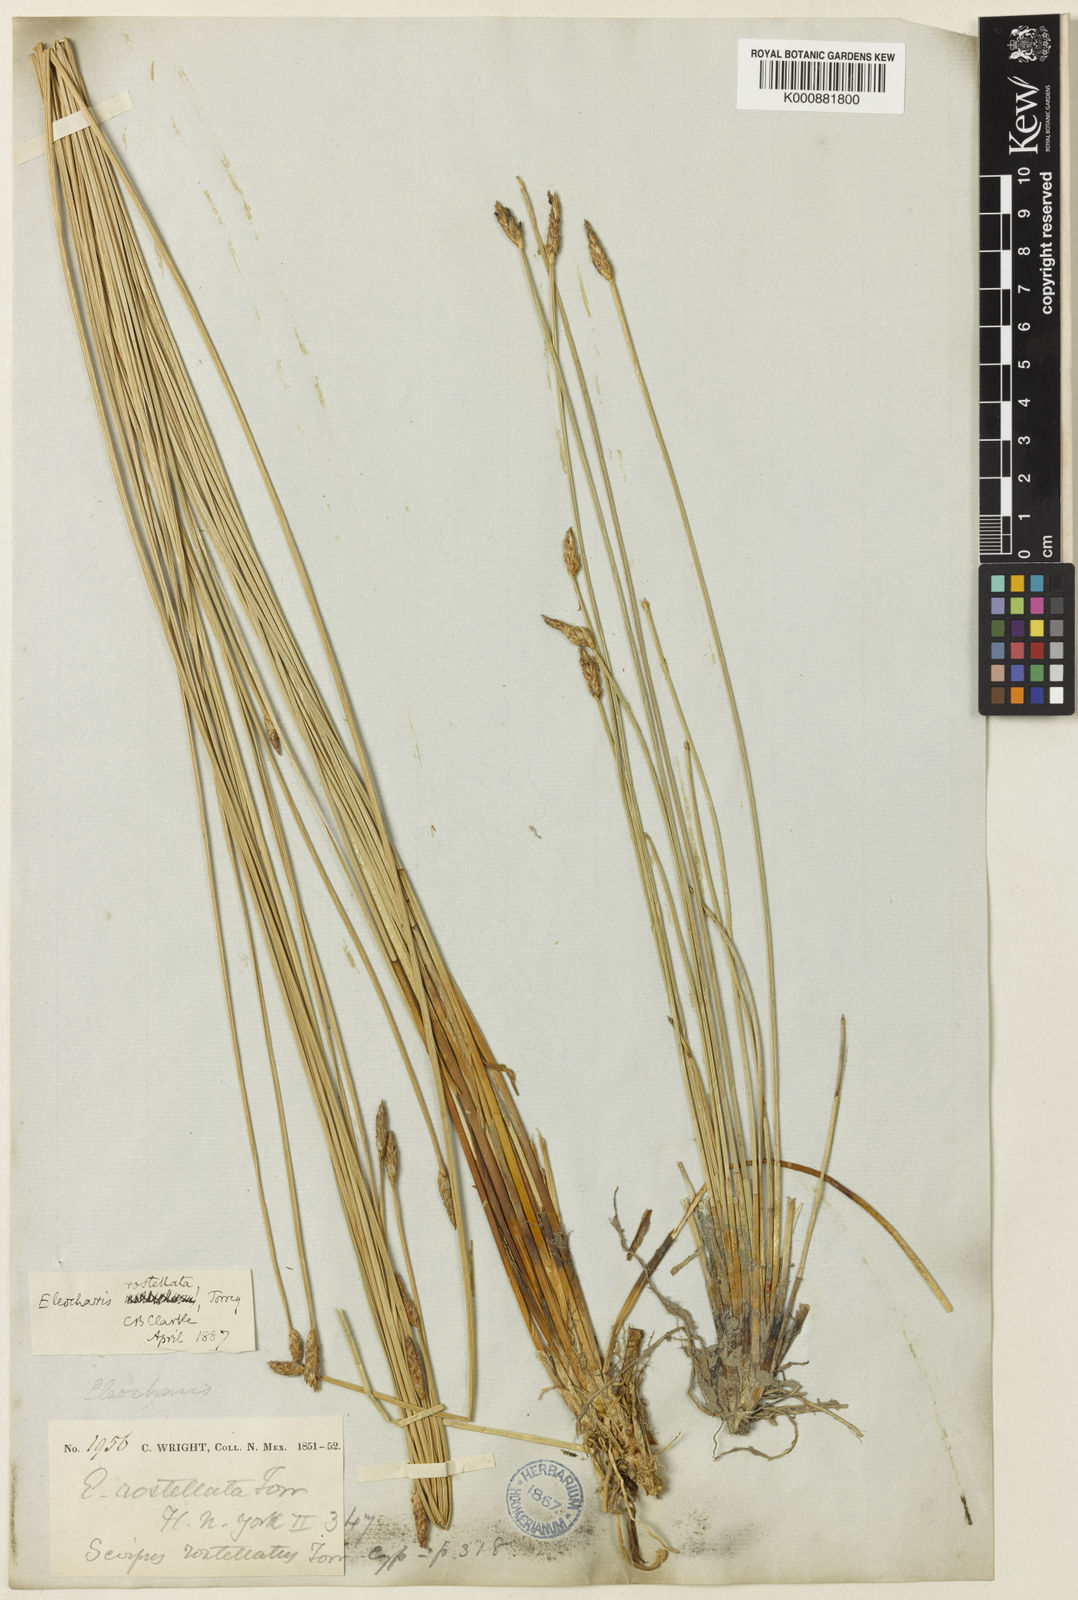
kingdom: Plantae
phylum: Tracheophyta
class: Liliopsida
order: Poales
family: Cyperaceae
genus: Eleocharis
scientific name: Eleocharis rostellata
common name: Walking sedge
